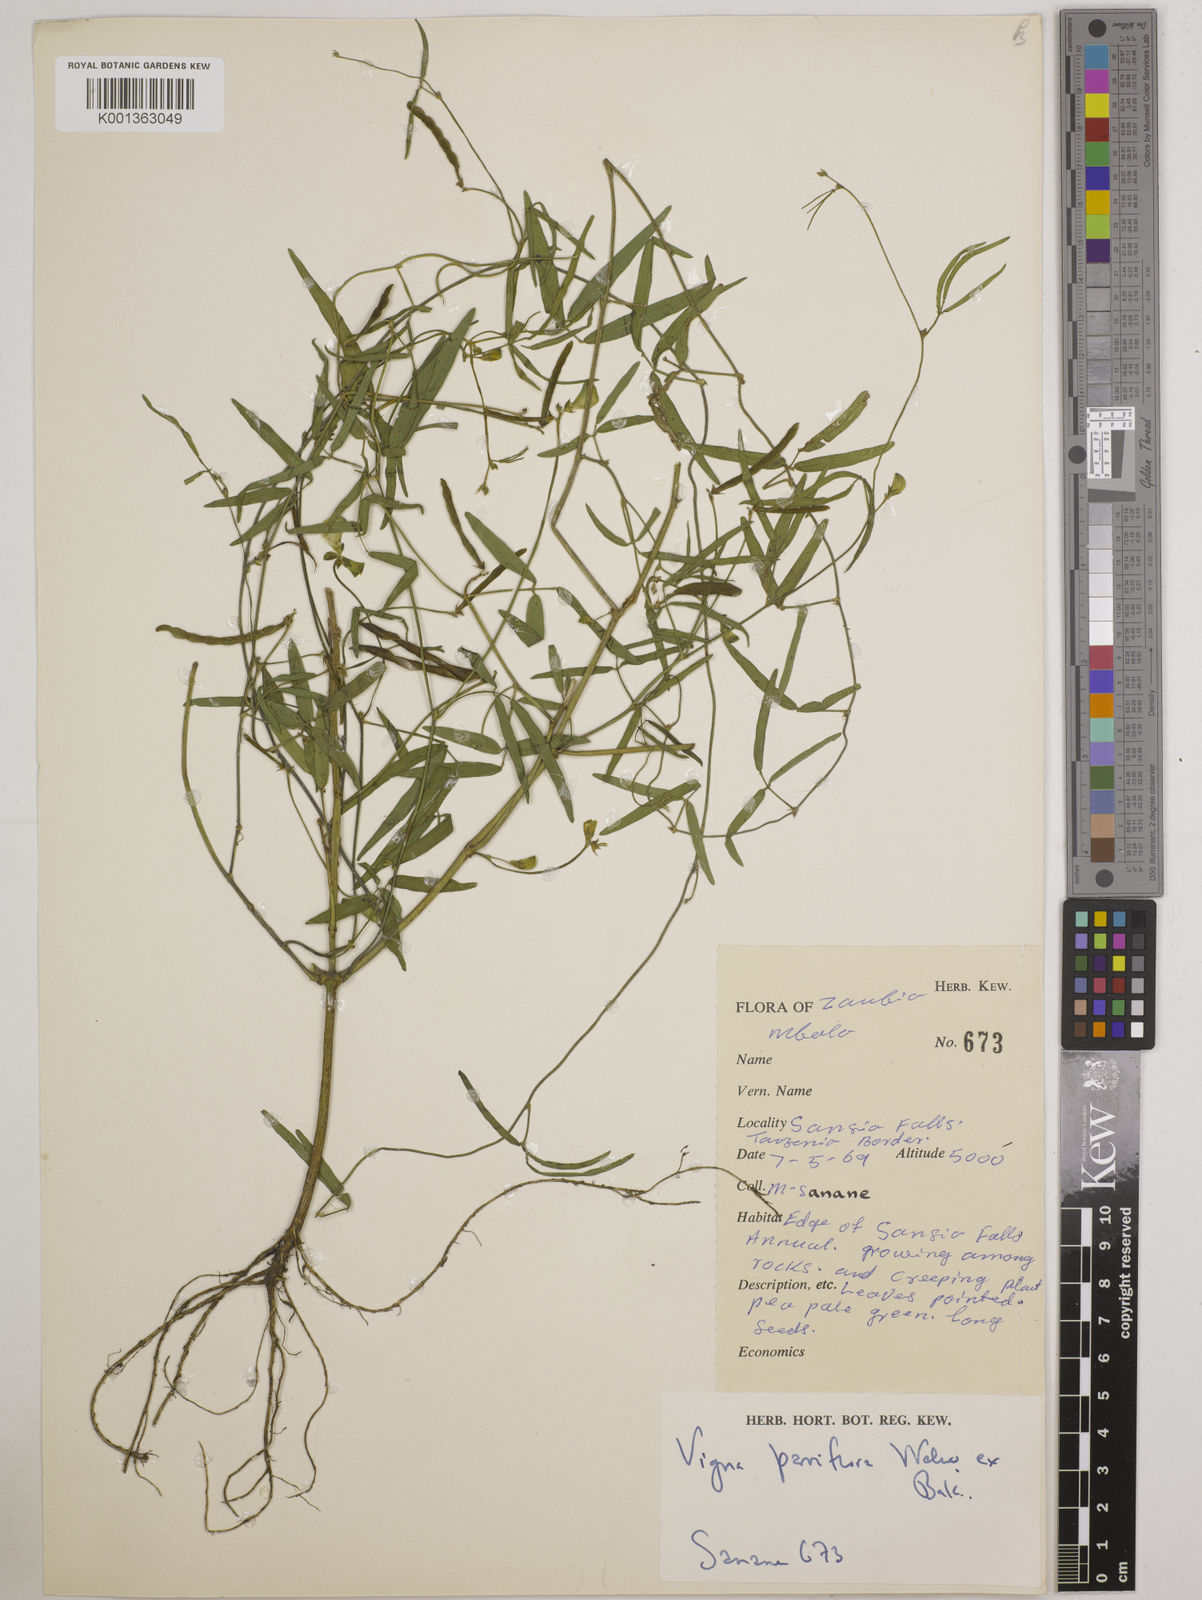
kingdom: Plantae
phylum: Tracheophyta
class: Magnoliopsida
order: Fabales
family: Fabaceae
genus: Vigna
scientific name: Vigna
